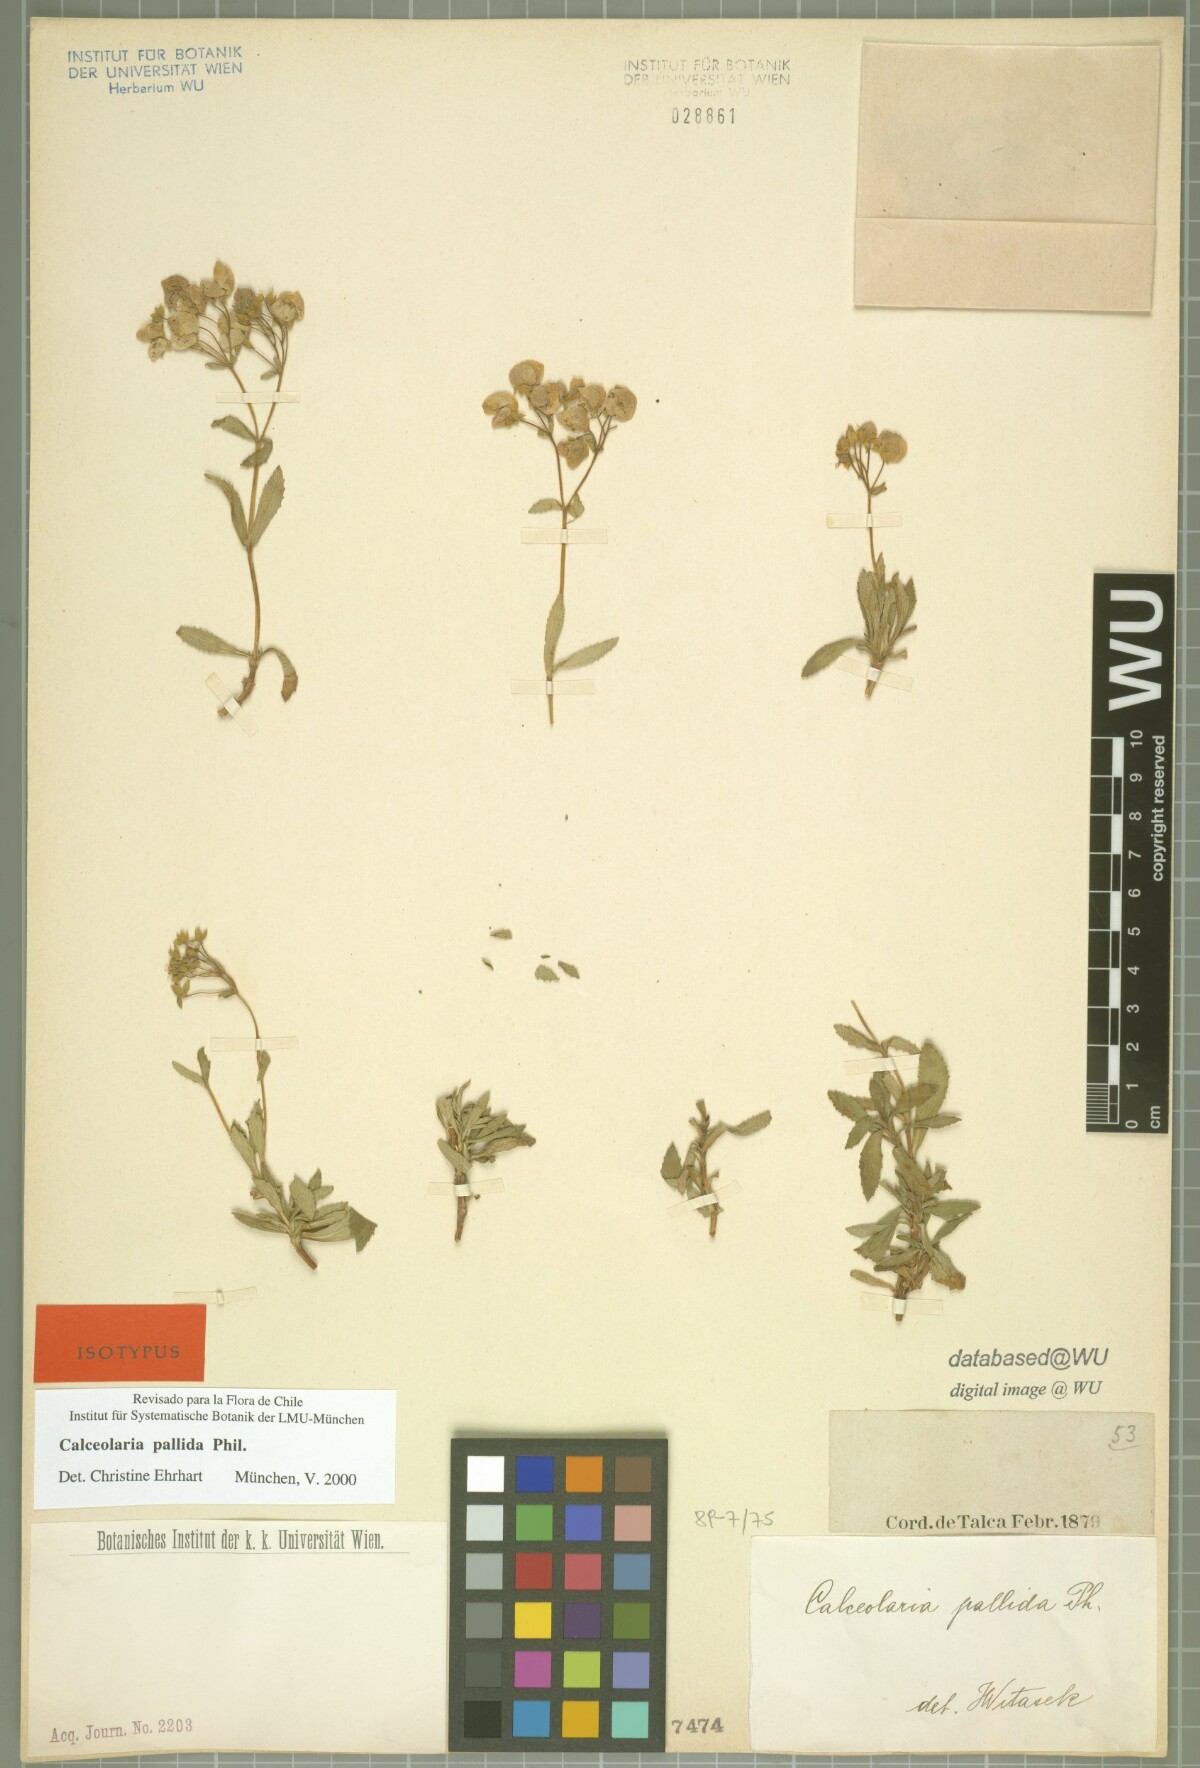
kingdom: Plantae
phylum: Tracheophyta
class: Magnoliopsida
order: Lamiales
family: Calceolariaceae
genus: Calceolaria
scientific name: Calceolaria pallida
